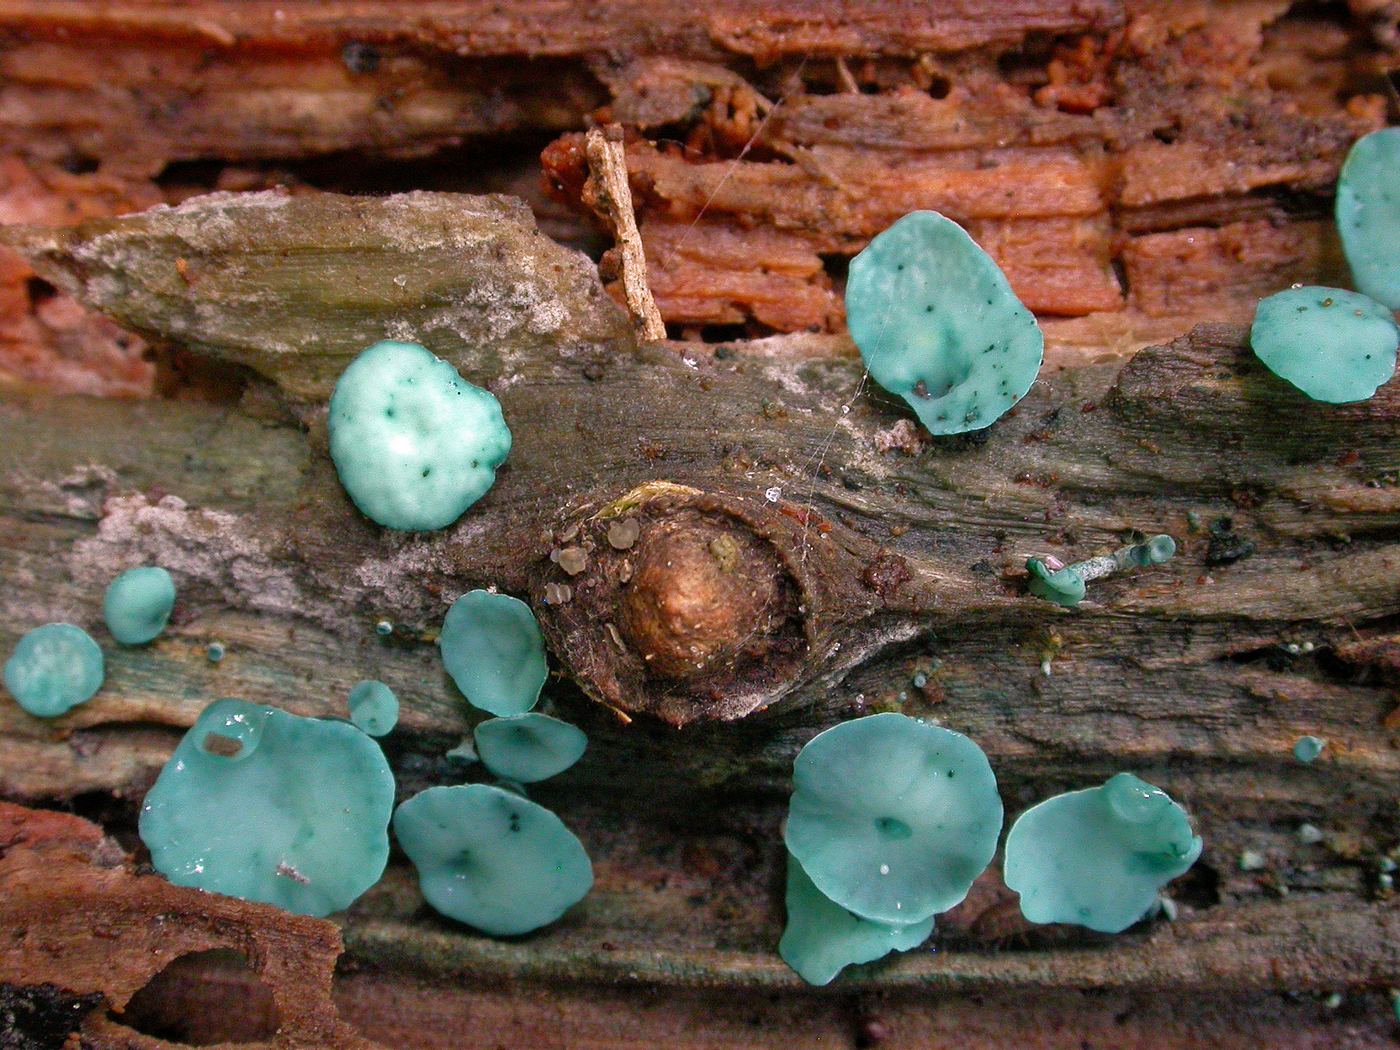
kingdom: Fungi
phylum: Ascomycota
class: Leotiomycetes
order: Helotiales
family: Chlorociboriaceae
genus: Chlorociboria
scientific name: Chlorociboria aeruginascens
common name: almindelig grønskive
